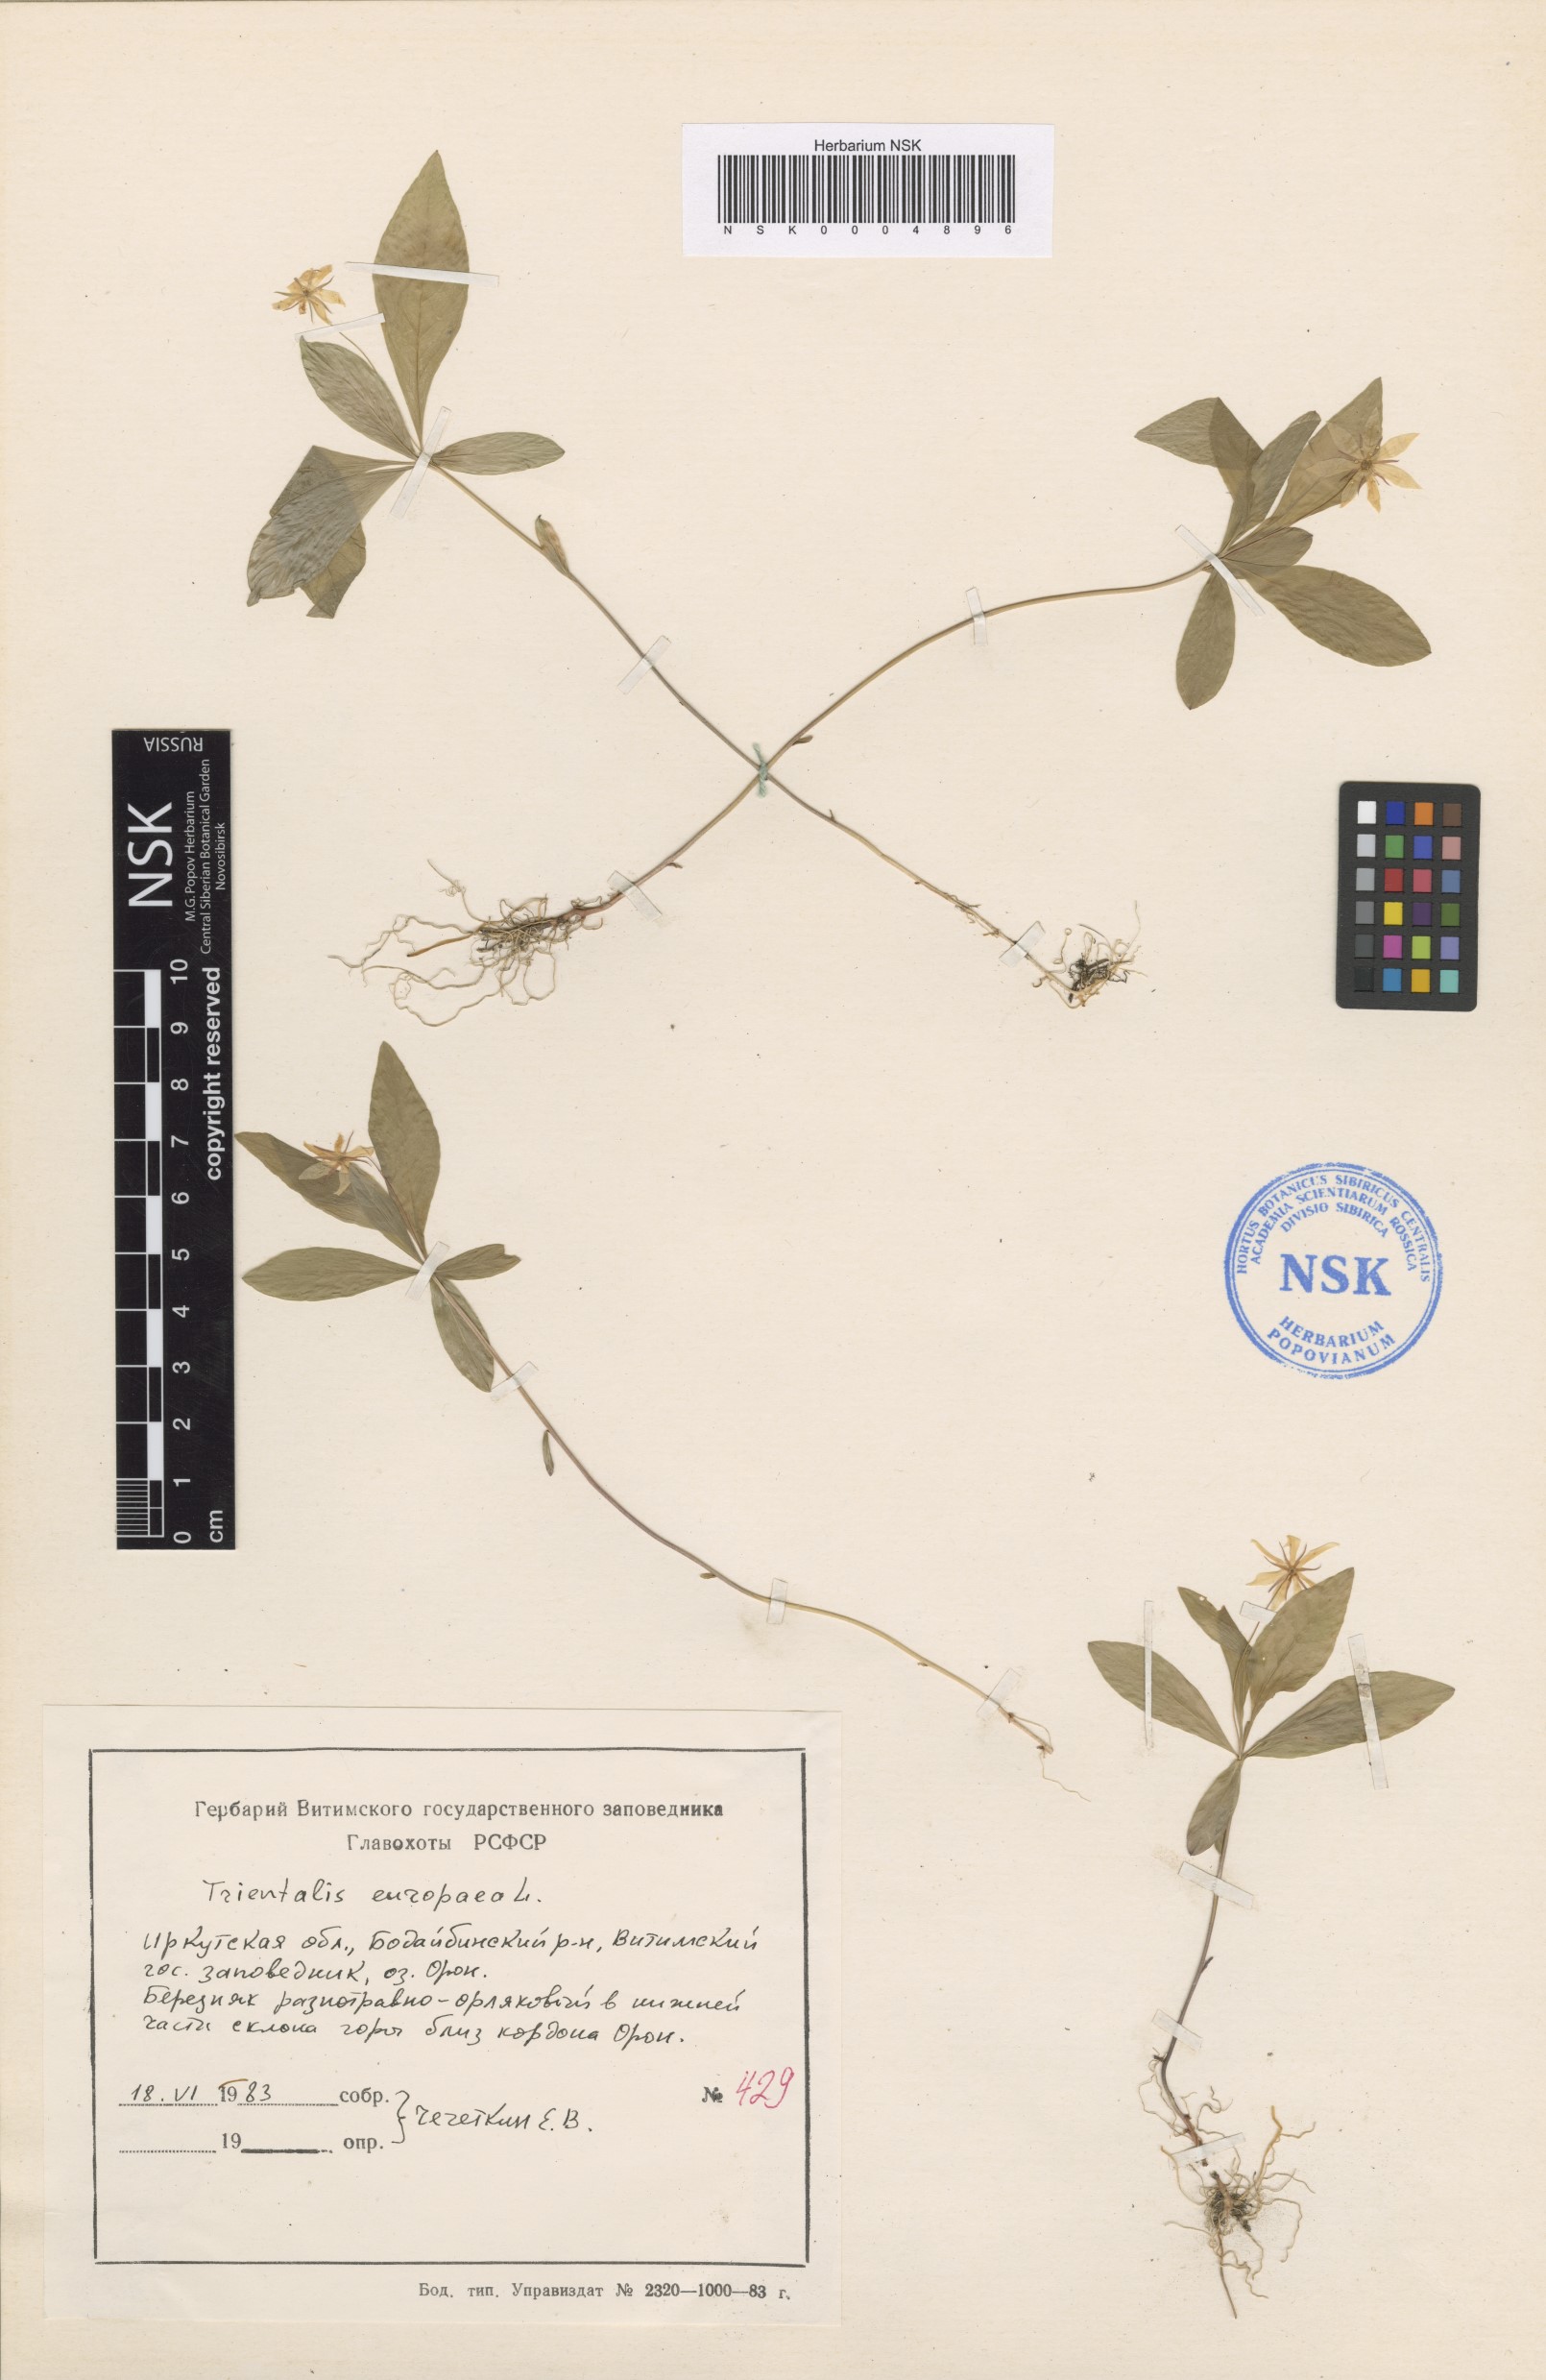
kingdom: Plantae
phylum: Tracheophyta
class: Magnoliopsida
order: Ericales
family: Primulaceae
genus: Lysimachia
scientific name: Lysimachia europaea
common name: Arctic starflower
